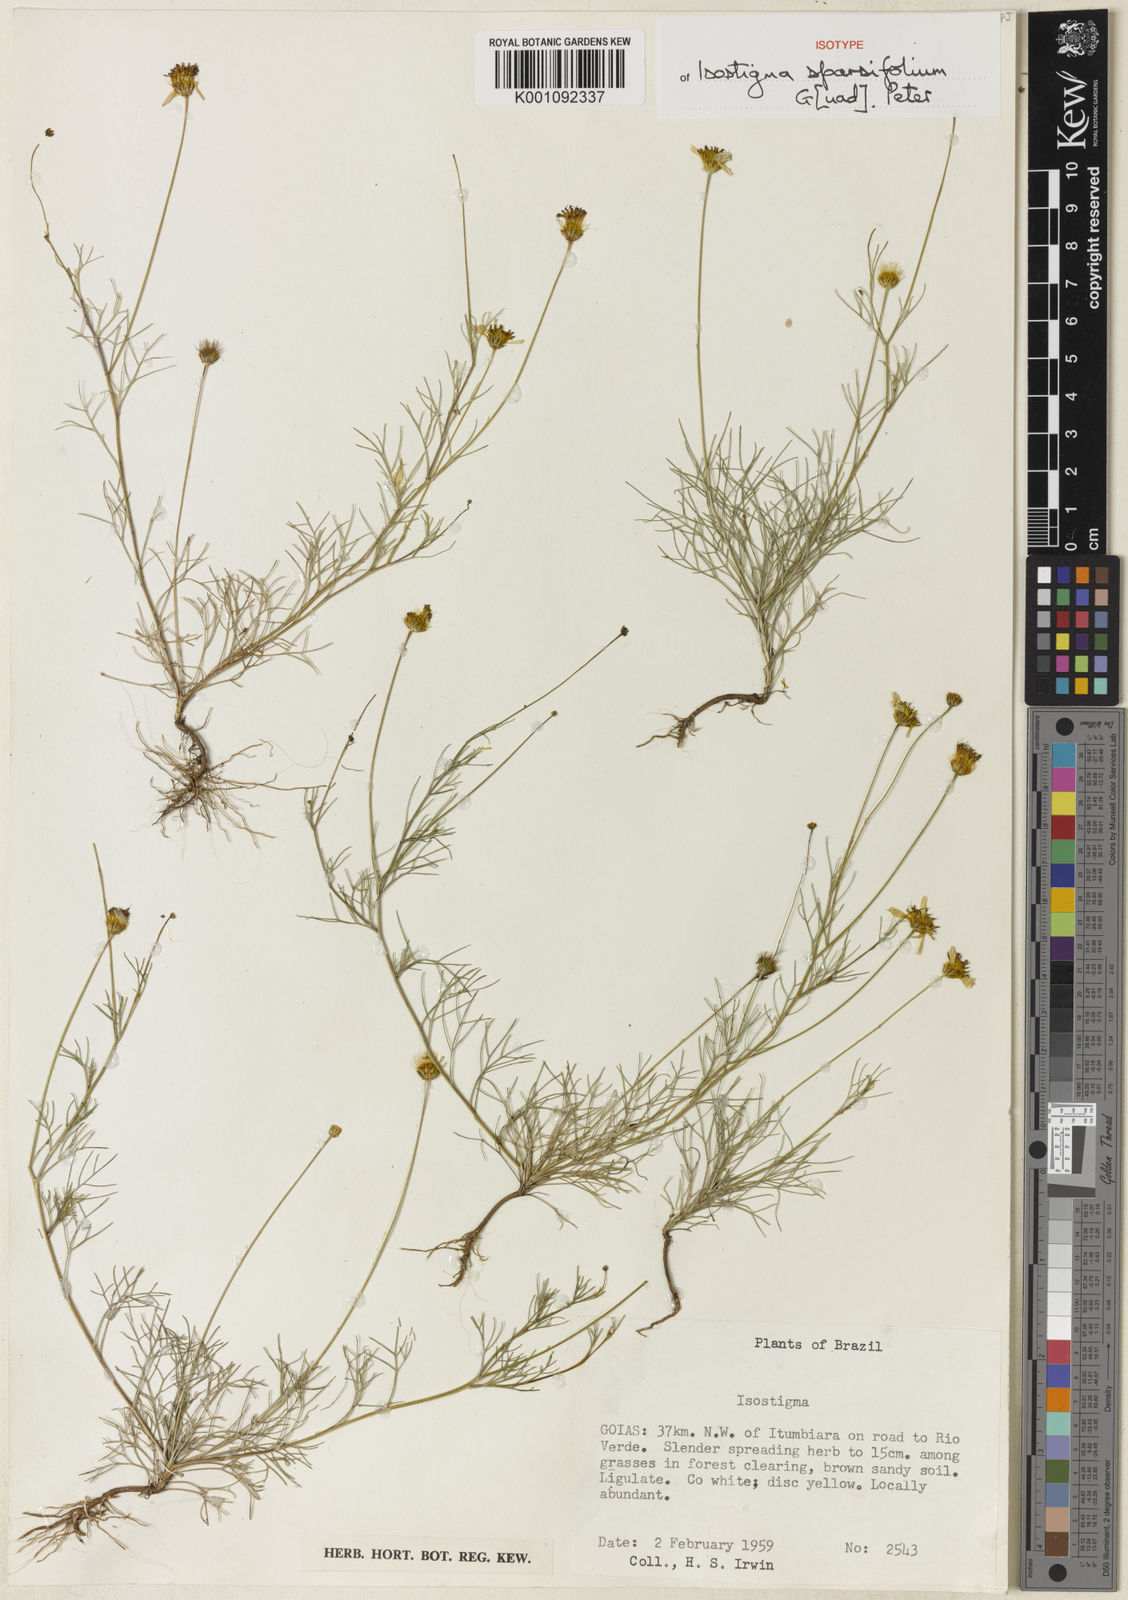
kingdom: Plantae
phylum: Tracheophyta
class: Magnoliopsida
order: Asterales
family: Asteraceae
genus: Isostigma
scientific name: Isostigma sparsifolium
